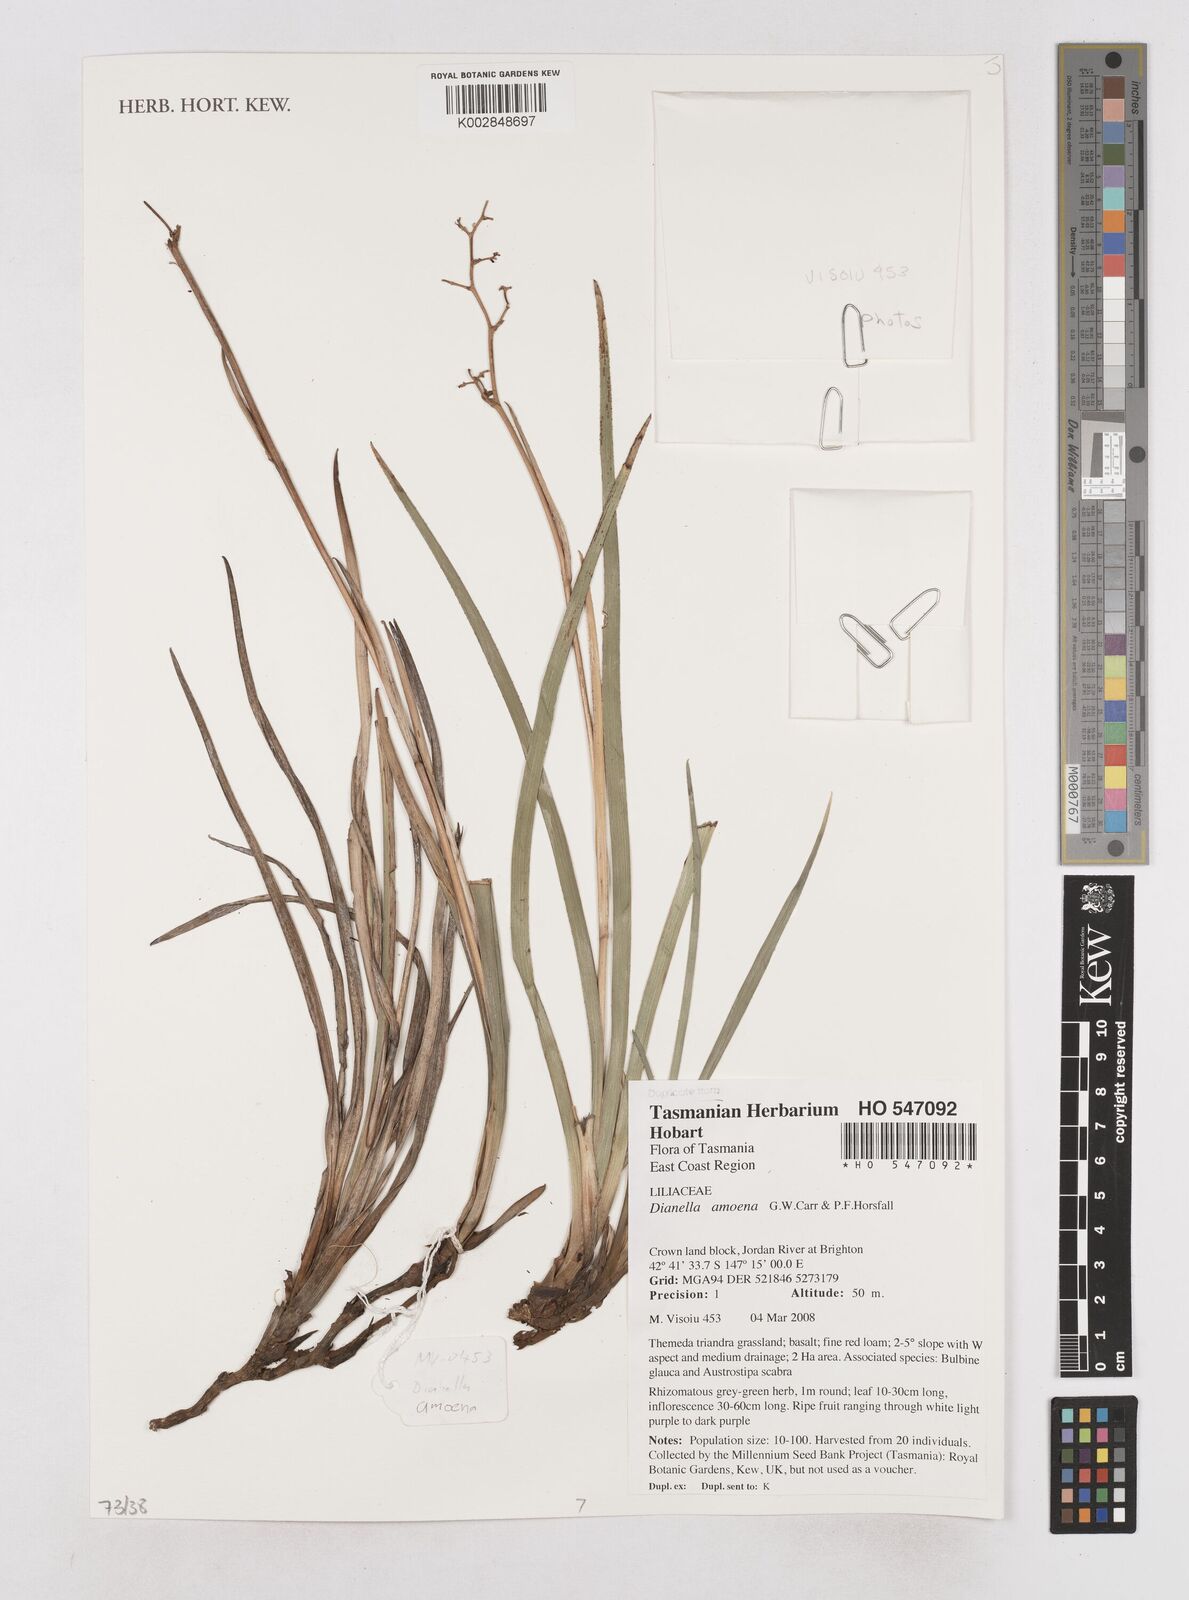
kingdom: Plantae
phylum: Tracheophyta
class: Liliopsida
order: Asparagales
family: Asphodelaceae
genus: Dianella
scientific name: Dianella amoena
